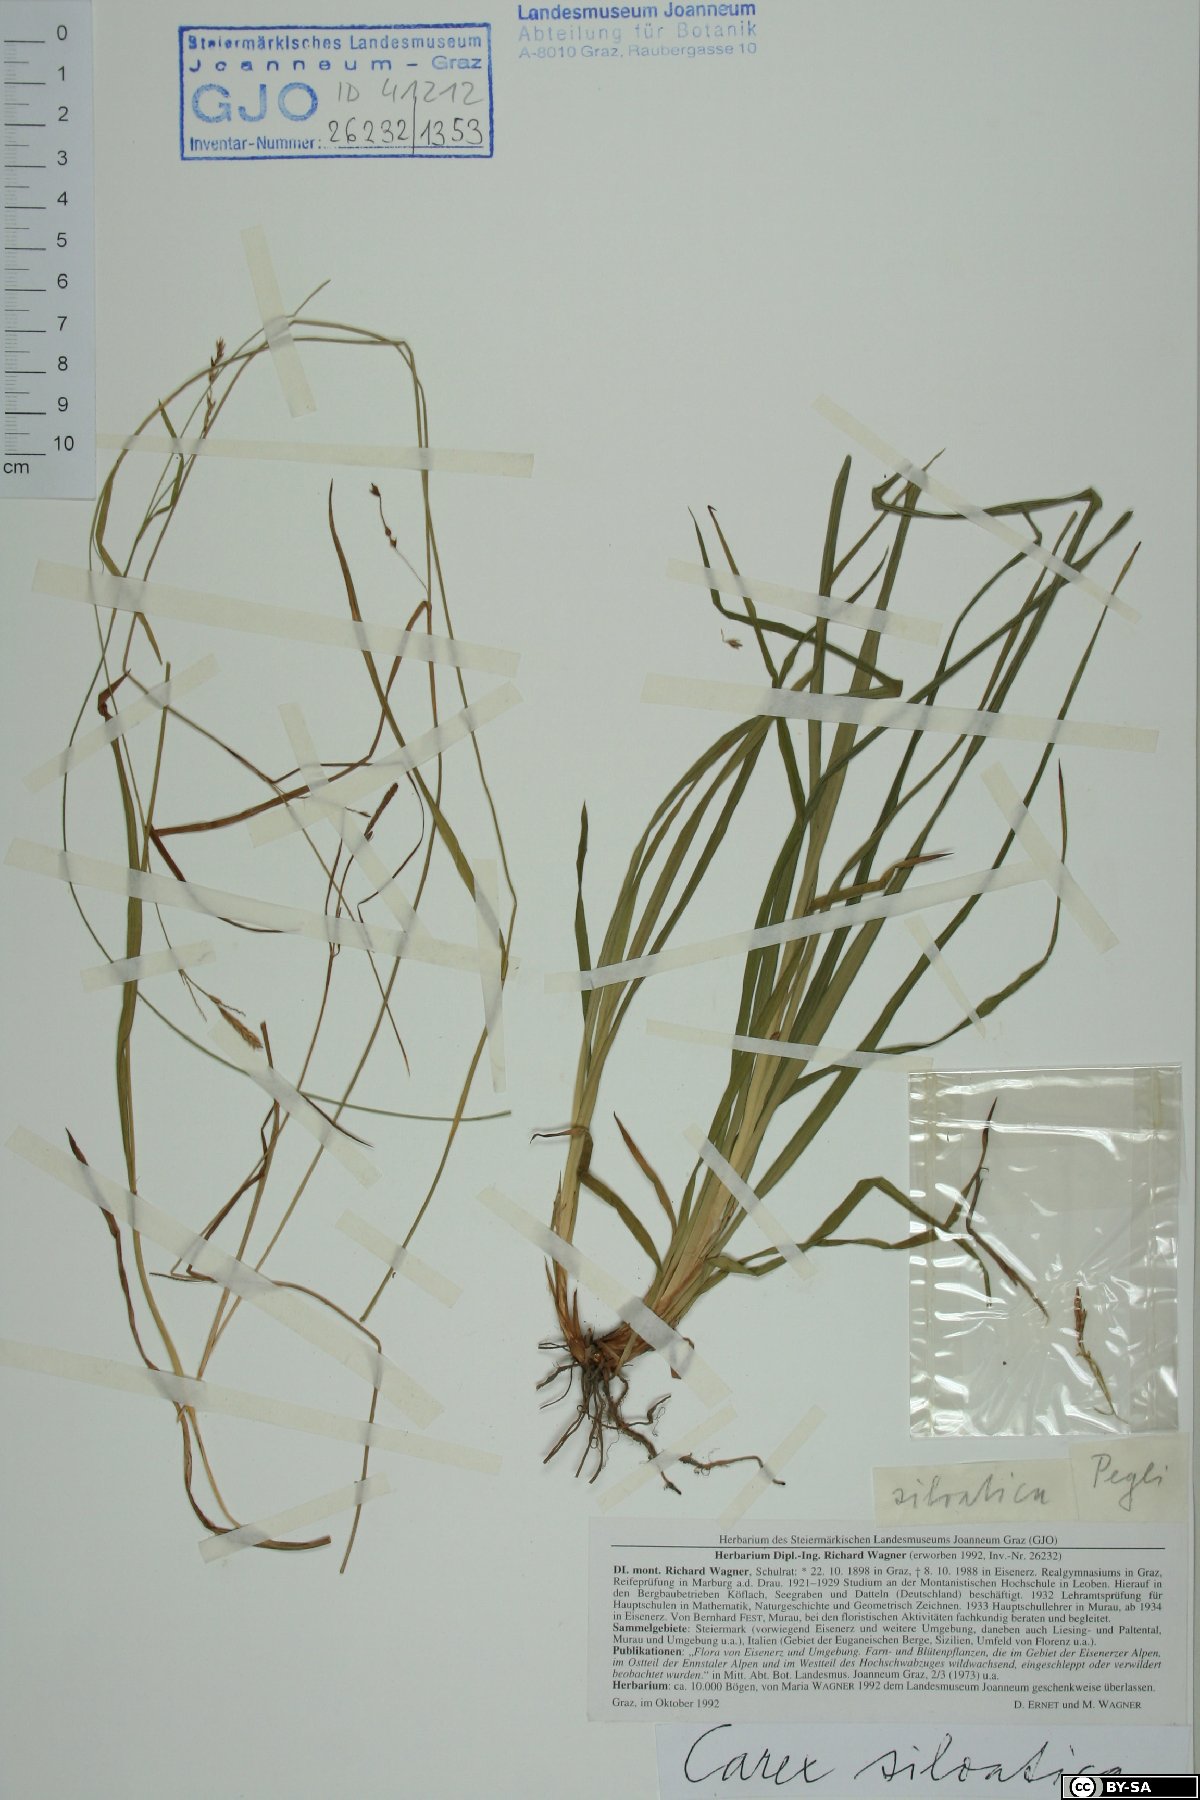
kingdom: Plantae
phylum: Tracheophyta
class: Liliopsida
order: Poales
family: Cyperaceae
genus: Carex
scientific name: Carex sylvatica
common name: Wood-sedge
